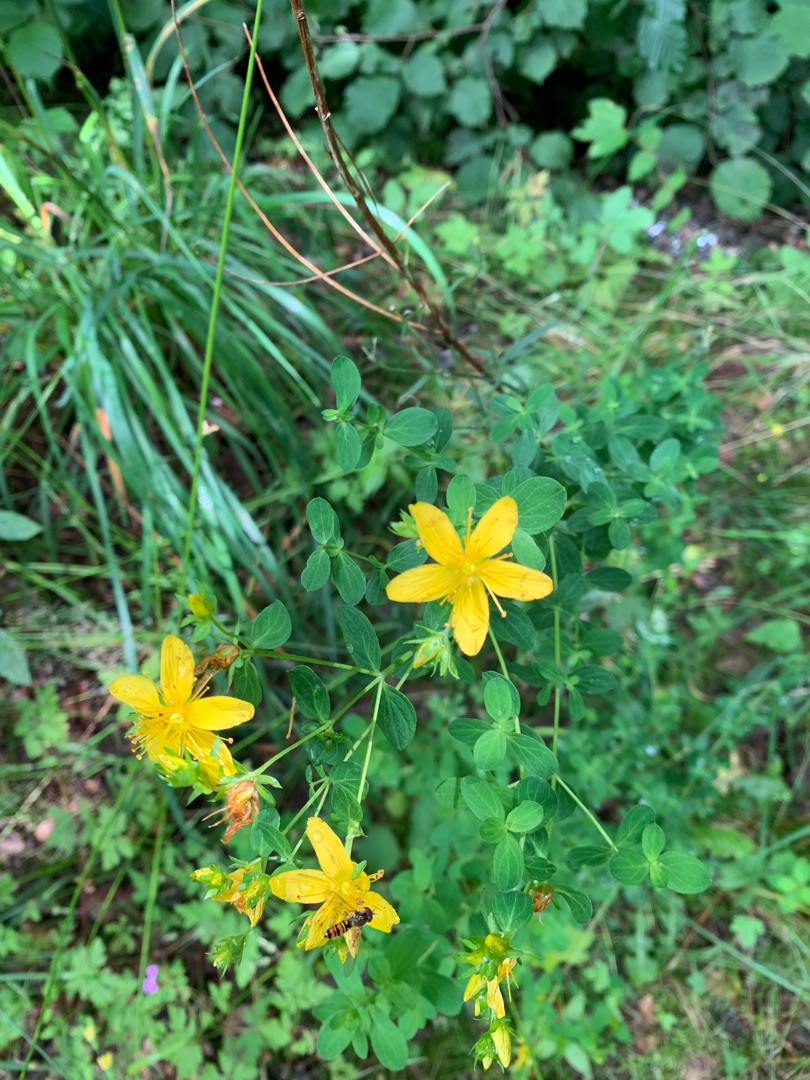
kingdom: Plantae
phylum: Tracheophyta
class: Magnoliopsida
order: Malpighiales
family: Hypericaceae
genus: Hypericum
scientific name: Hypericum perforatum
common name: Prikbladet perikon
